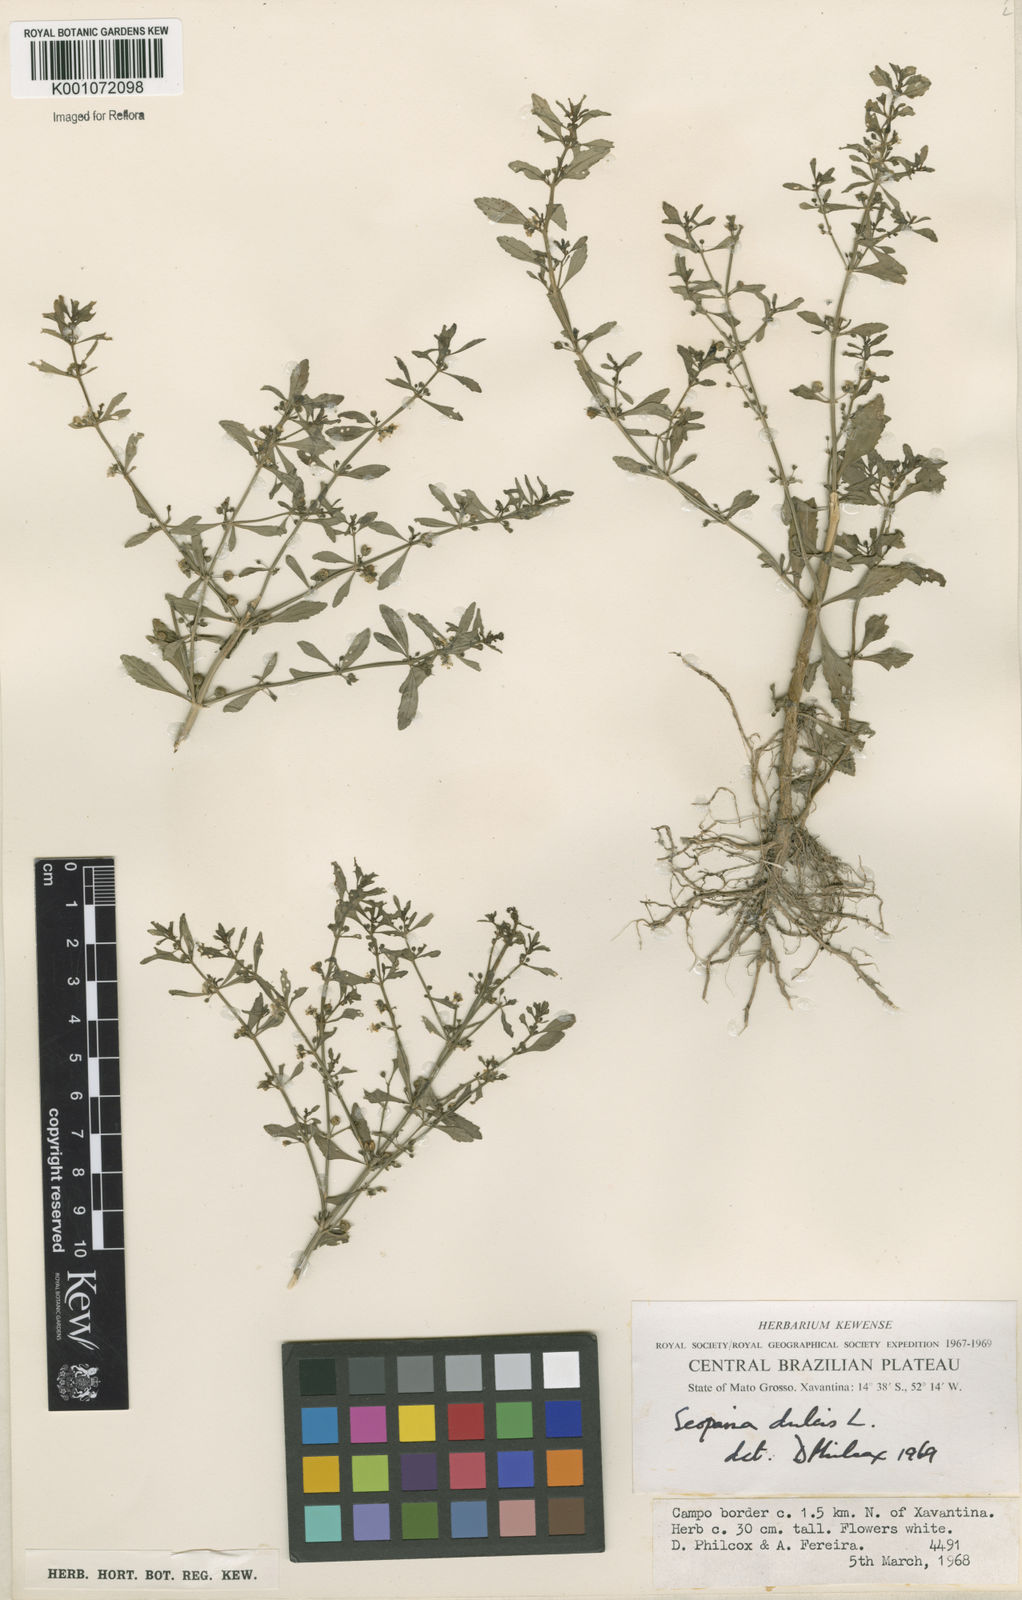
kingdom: Plantae
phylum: Tracheophyta
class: Magnoliopsida
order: Lamiales
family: Plantaginaceae
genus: Scoparia
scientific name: Scoparia dulcis
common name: Scoparia-weed
